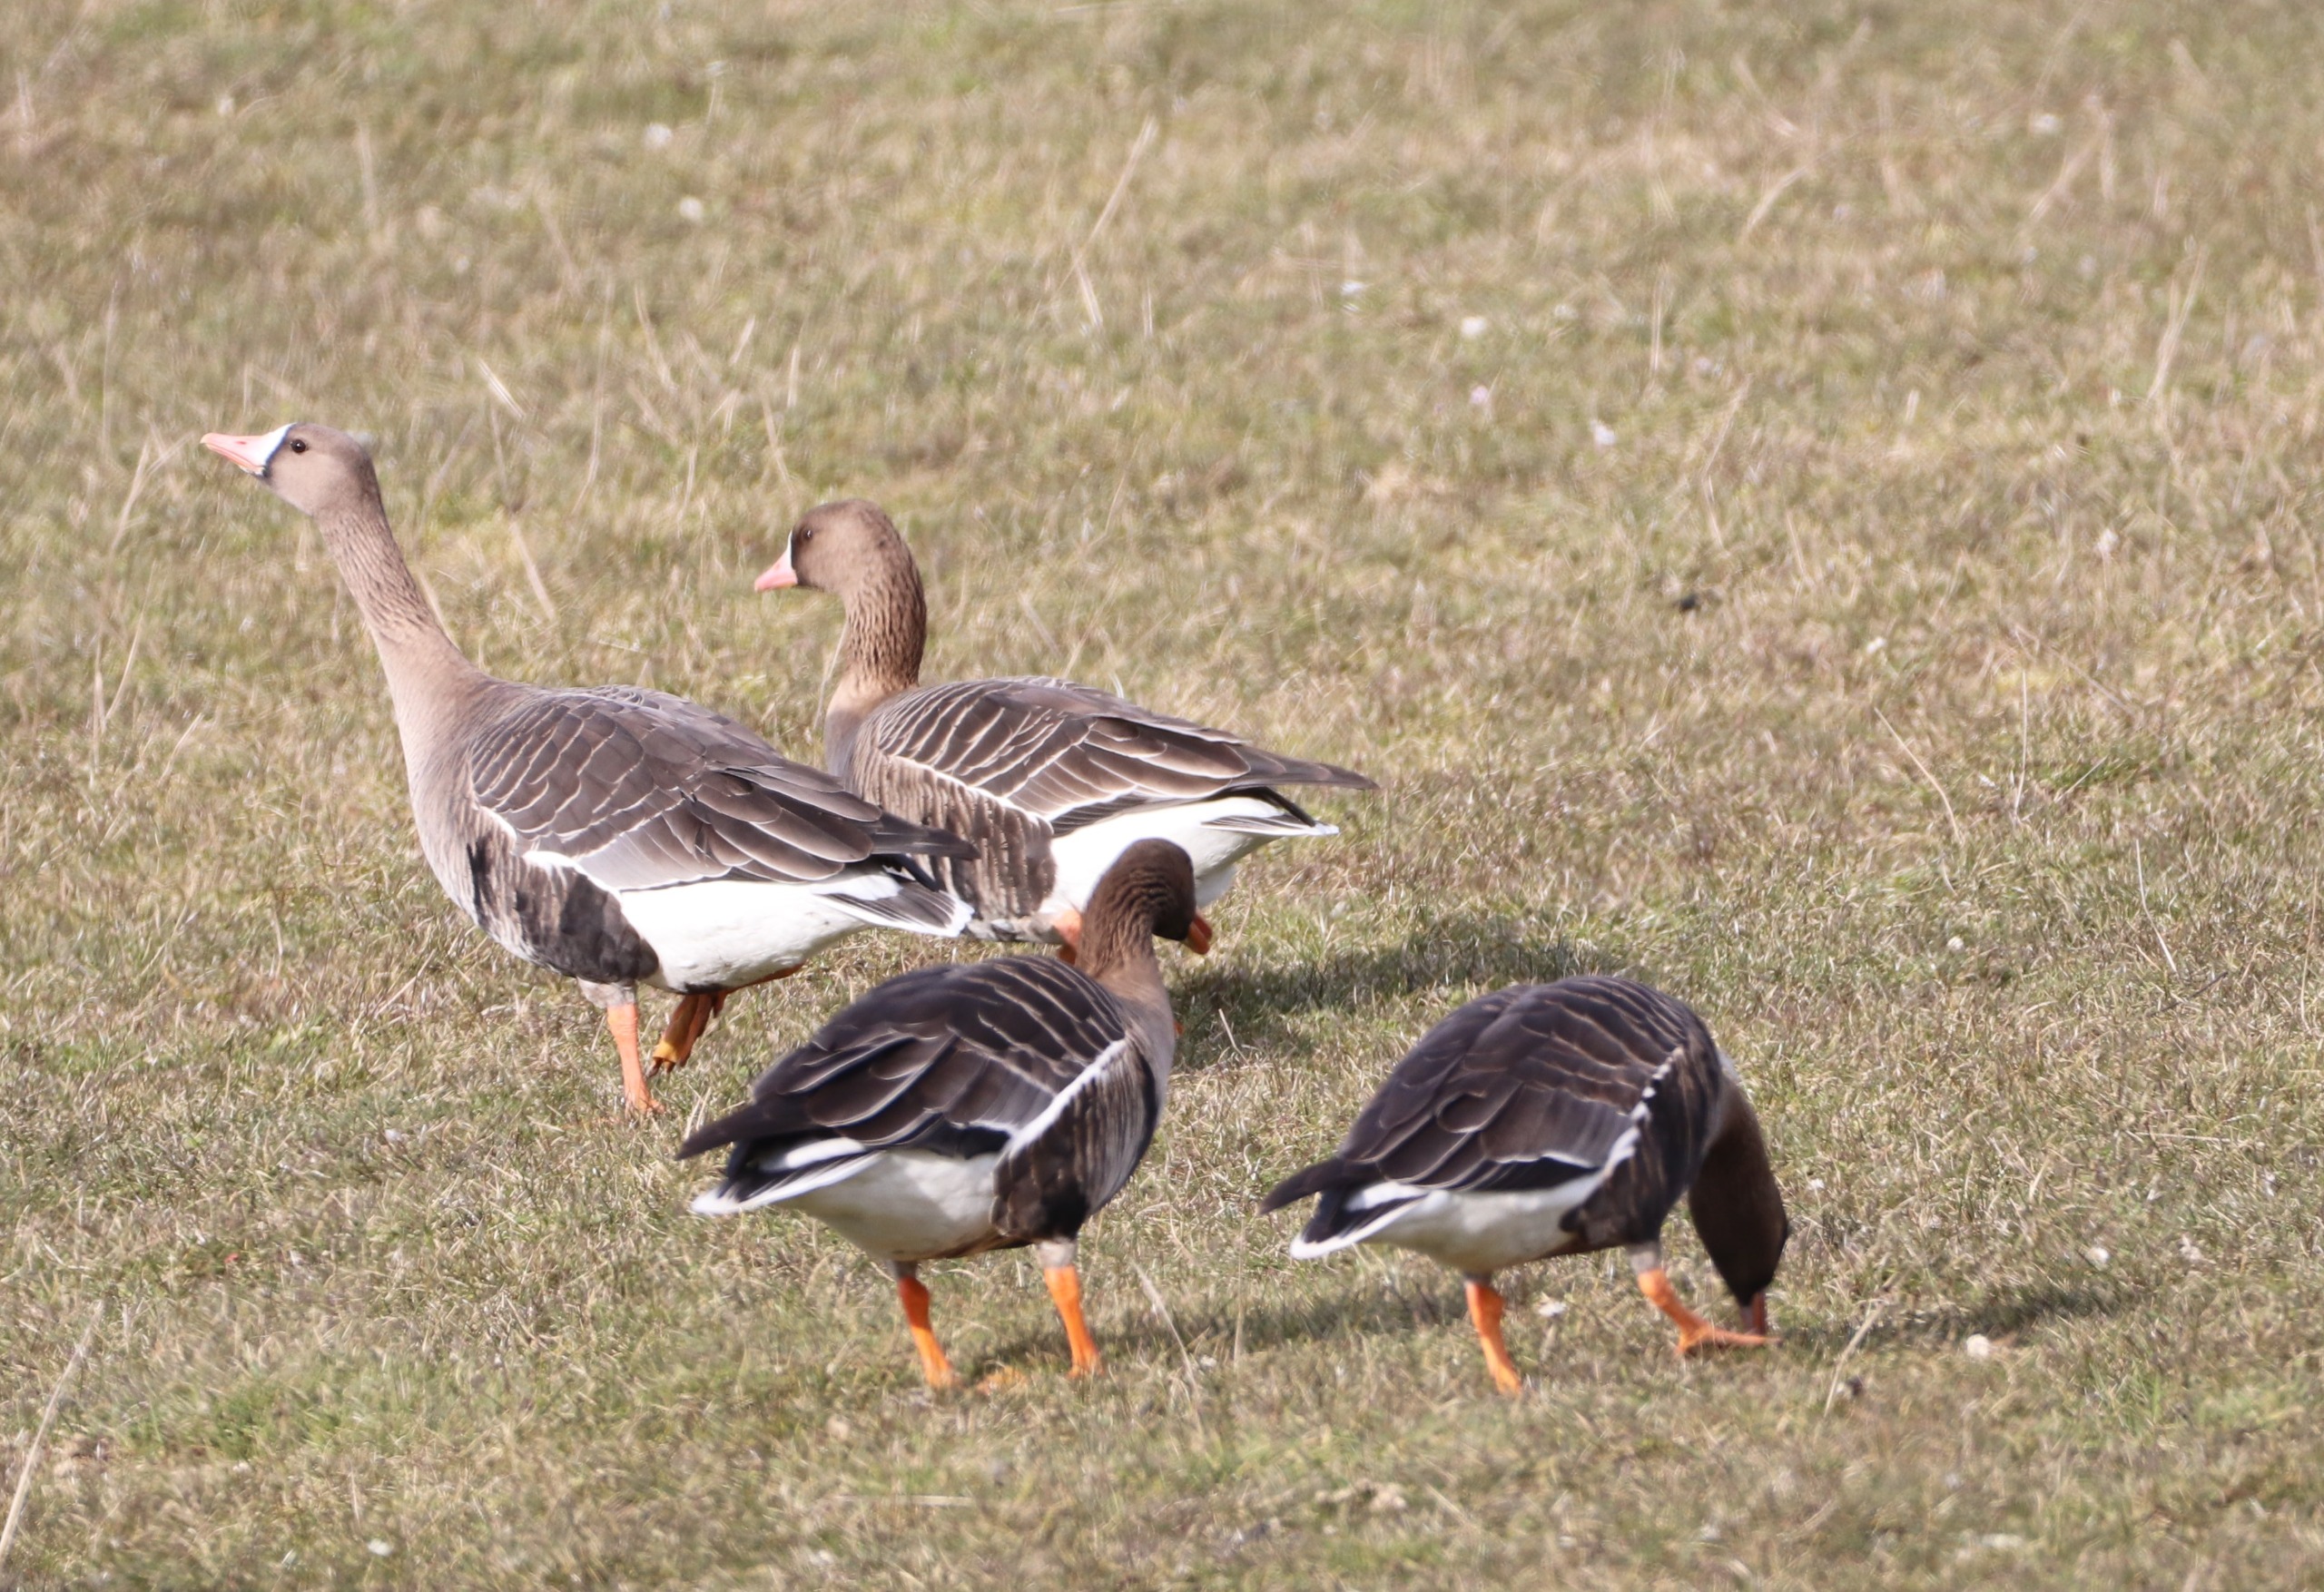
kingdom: Animalia
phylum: Chordata
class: Aves
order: Anseriformes
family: Anatidae
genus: Anser
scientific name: Anser albifrons
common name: Blisgås
